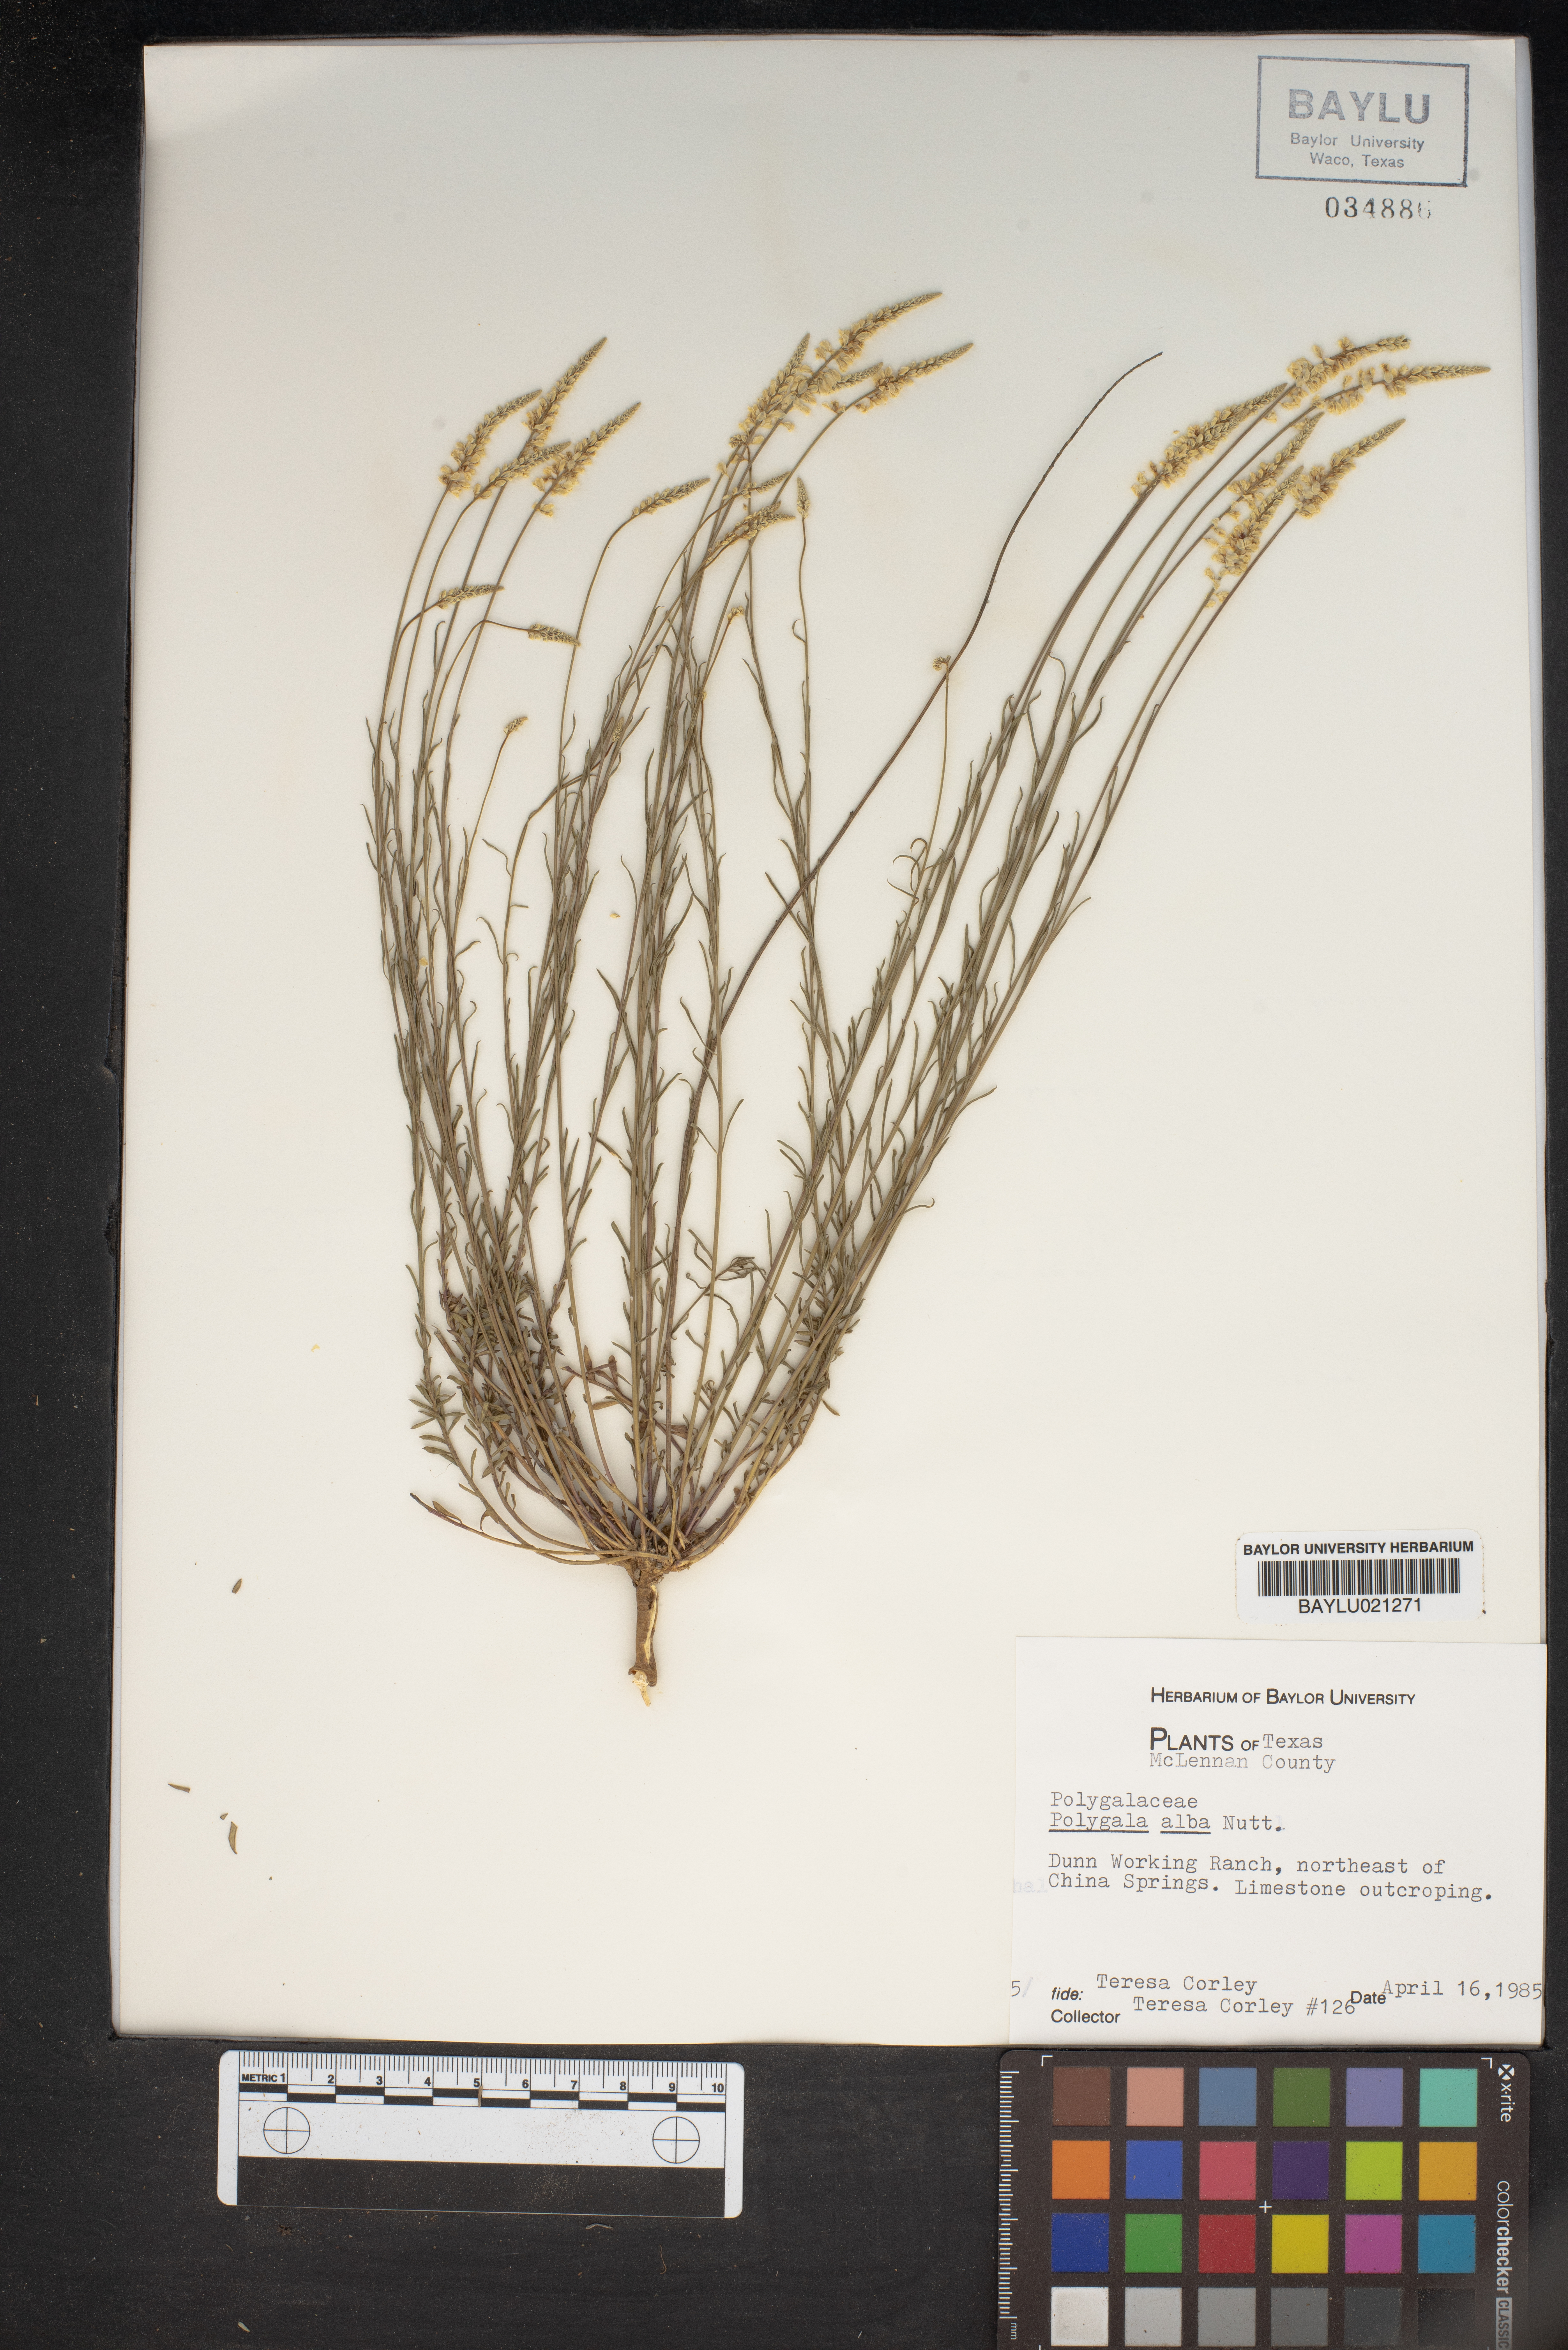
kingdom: Plantae
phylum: Tracheophyta
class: Magnoliopsida
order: Fabales
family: Polygalaceae
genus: Polygala
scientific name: Polygala alba
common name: White milkwort
